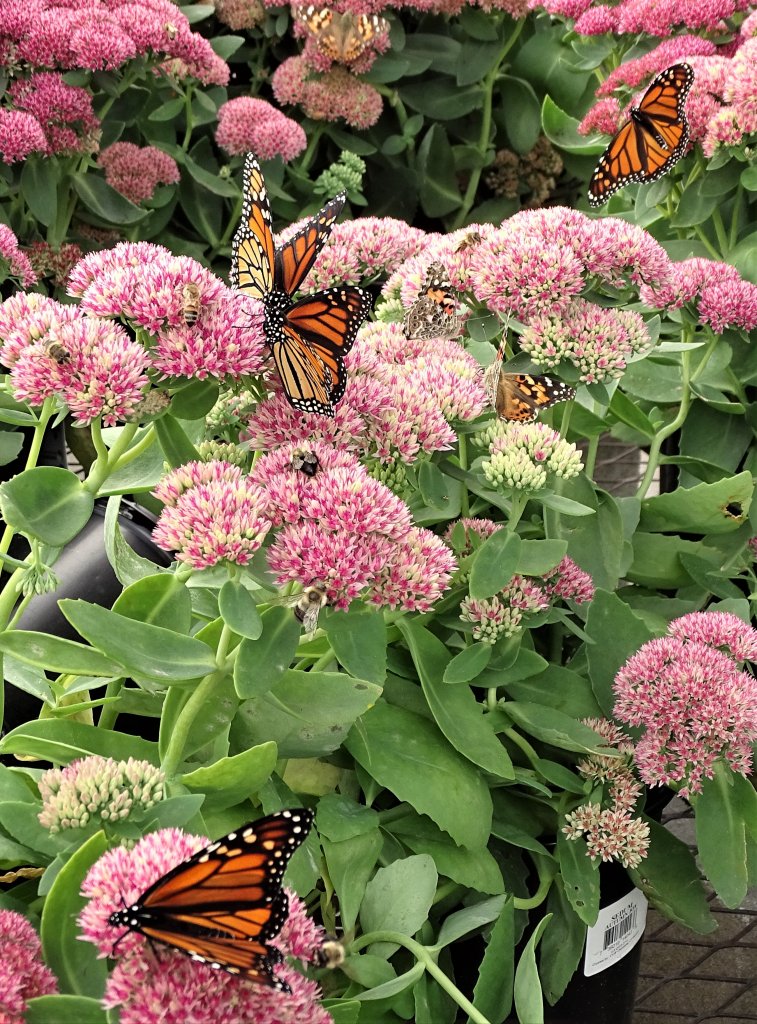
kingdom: Animalia
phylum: Arthropoda
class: Insecta
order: Lepidoptera
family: Nymphalidae
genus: Danaus
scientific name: Danaus plexippus
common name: Monarch
